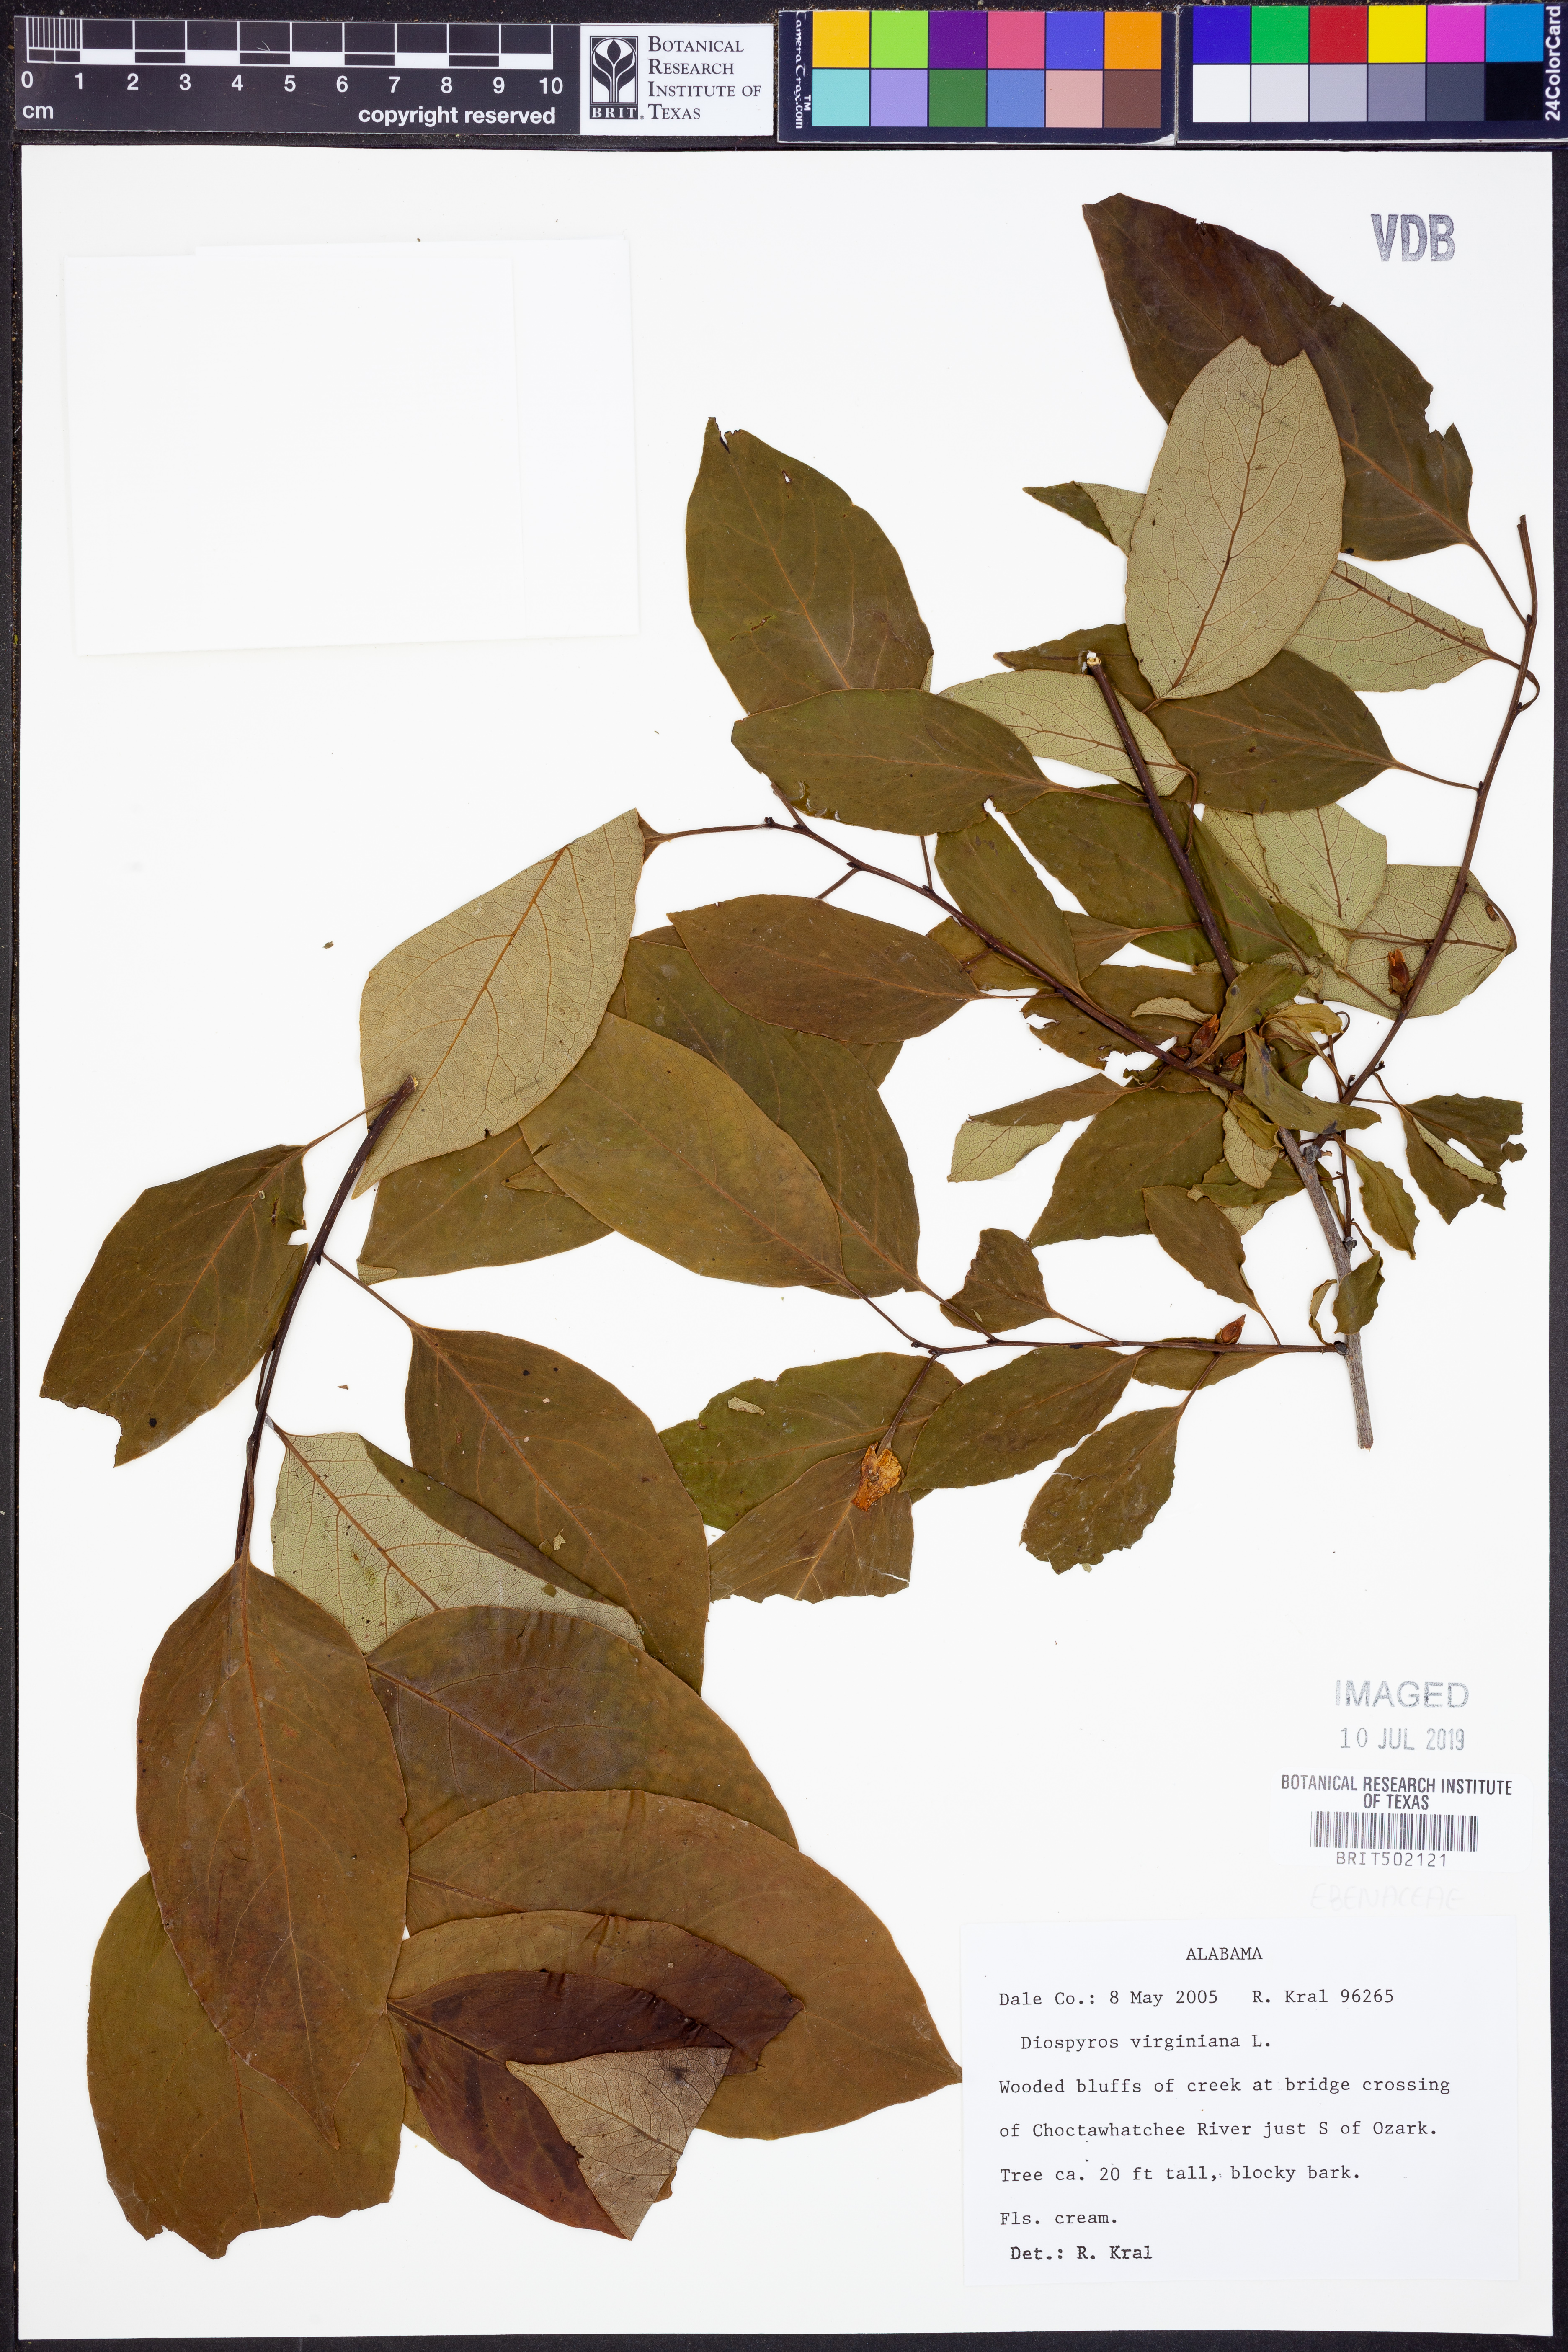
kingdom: Plantae
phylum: Tracheophyta
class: Magnoliopsida
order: Ericales
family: Ebenaceae
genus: Diospyros
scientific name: Diospyros virginiana
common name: Persimmon
